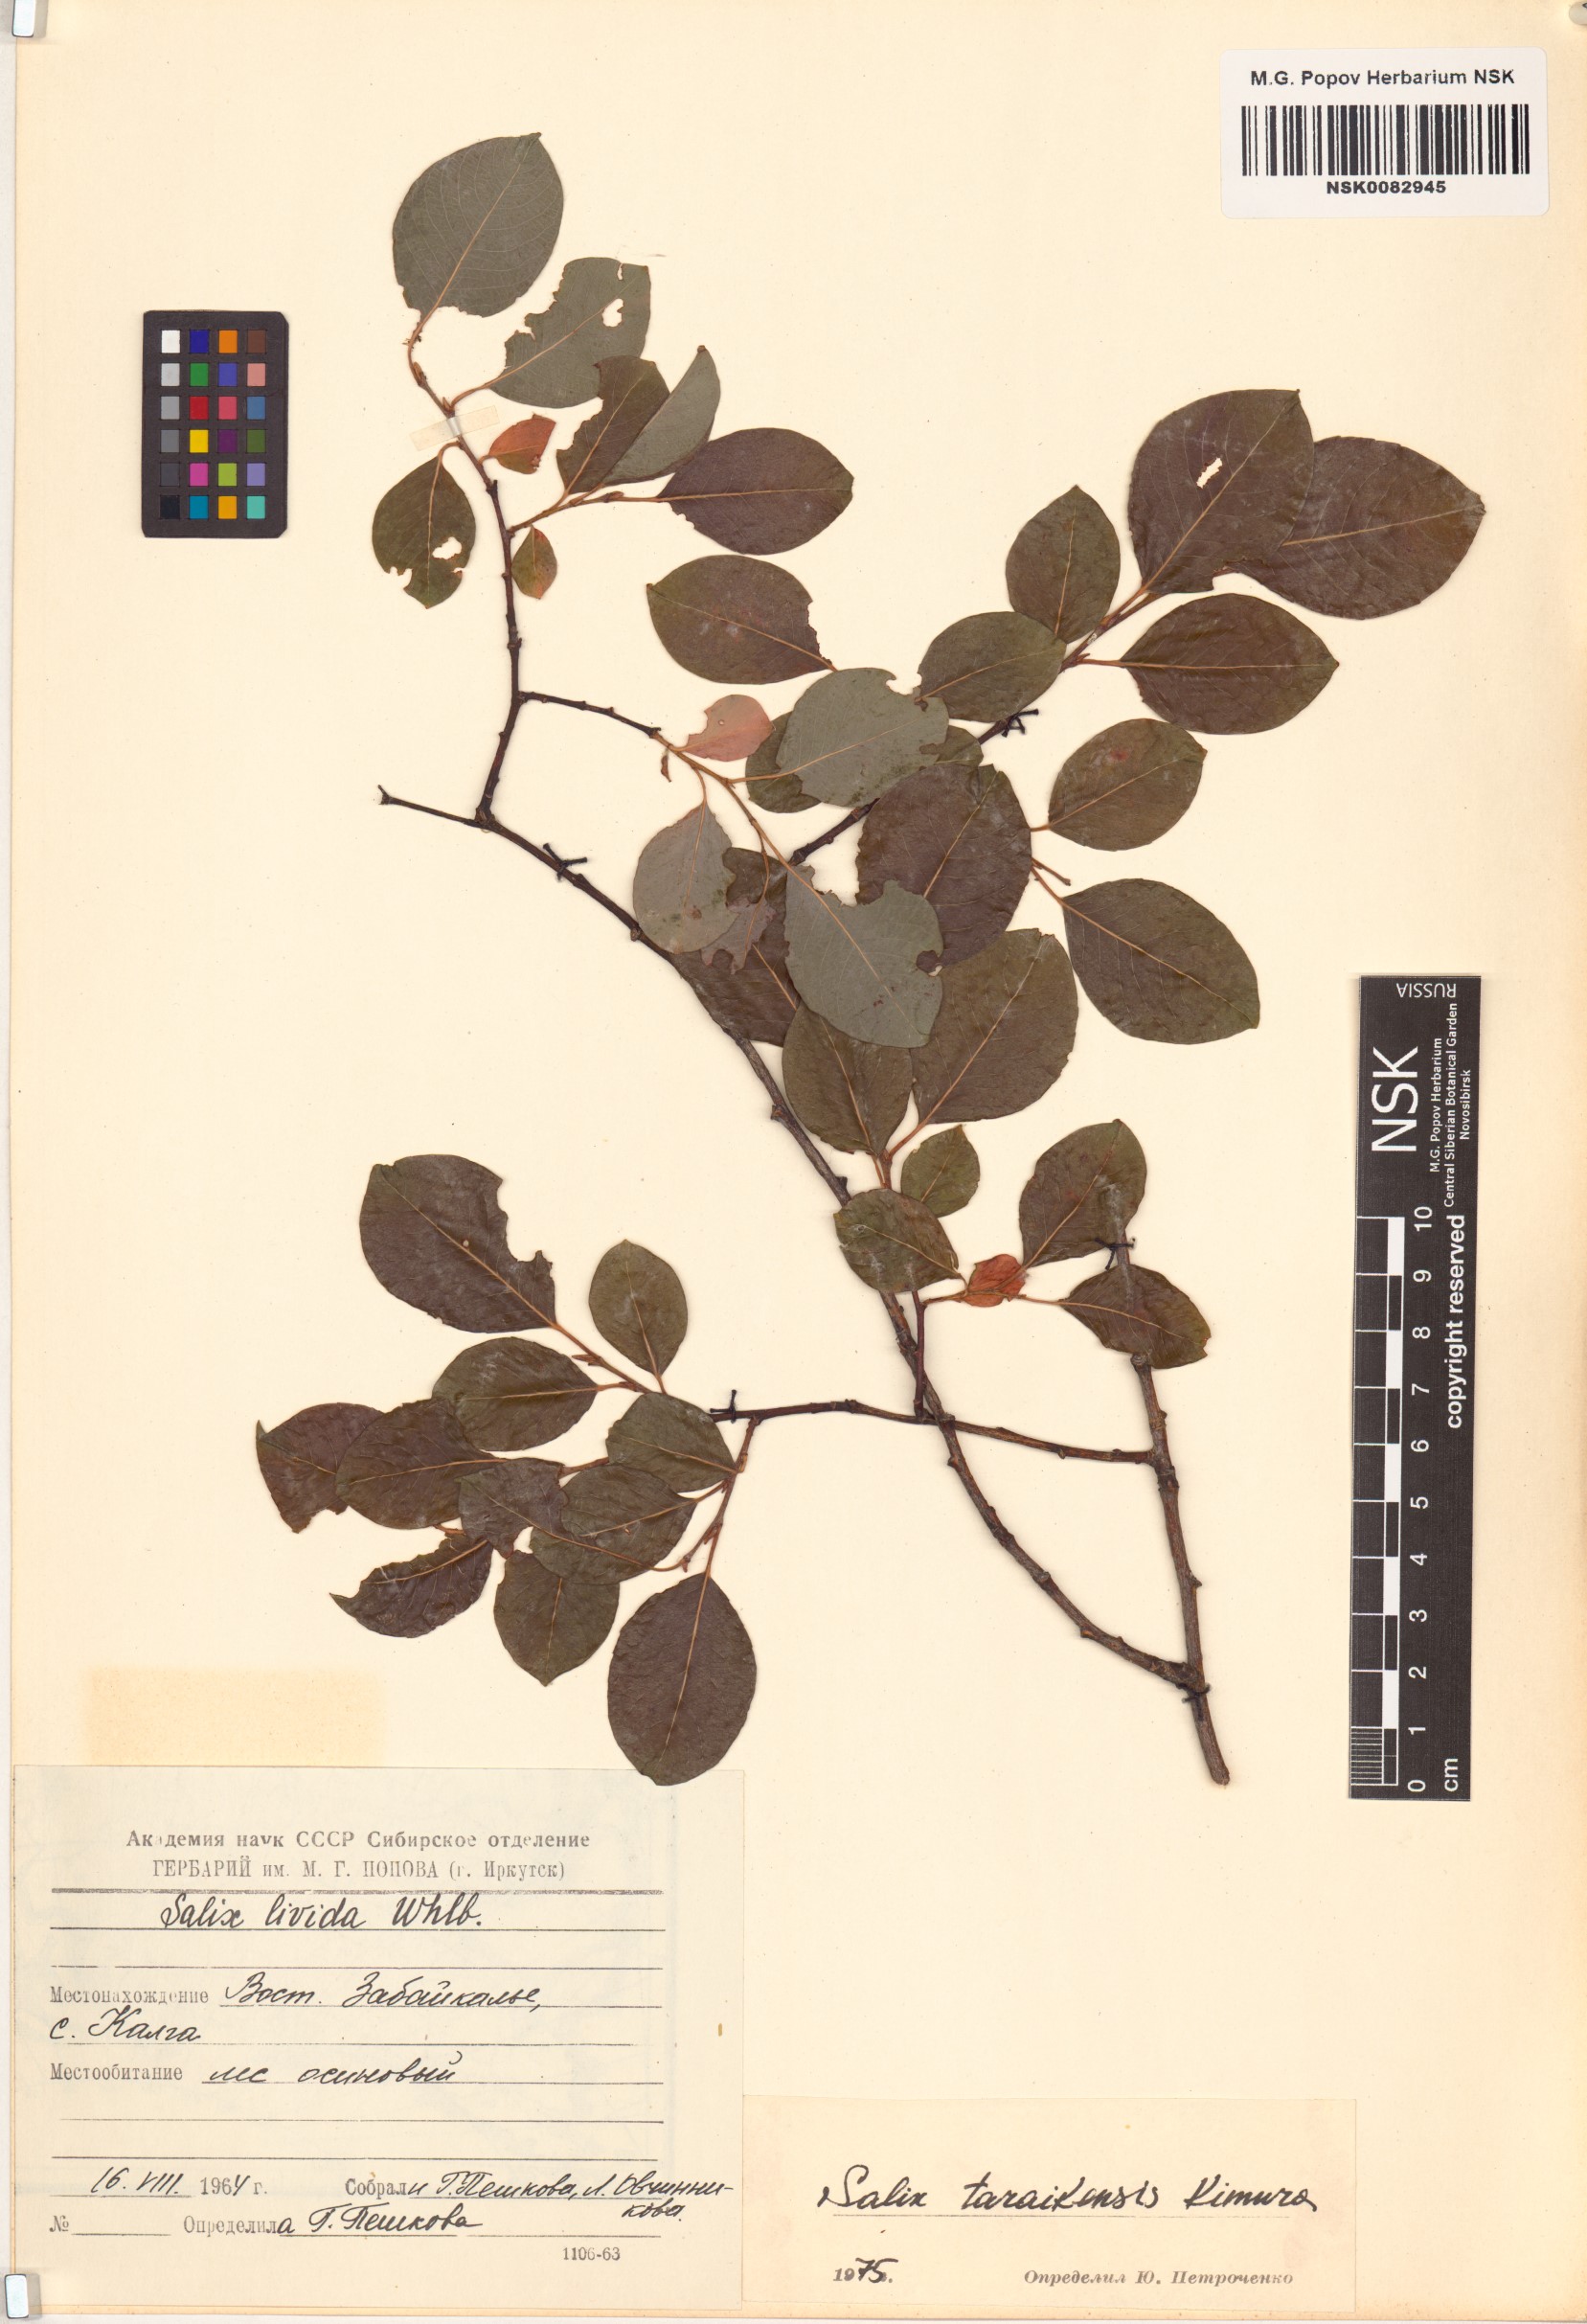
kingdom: Plantae
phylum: Tracheophyta
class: Magnoliopsida
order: Malpighiales
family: Salicaceae
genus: Salix
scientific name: Salix taraikensis
